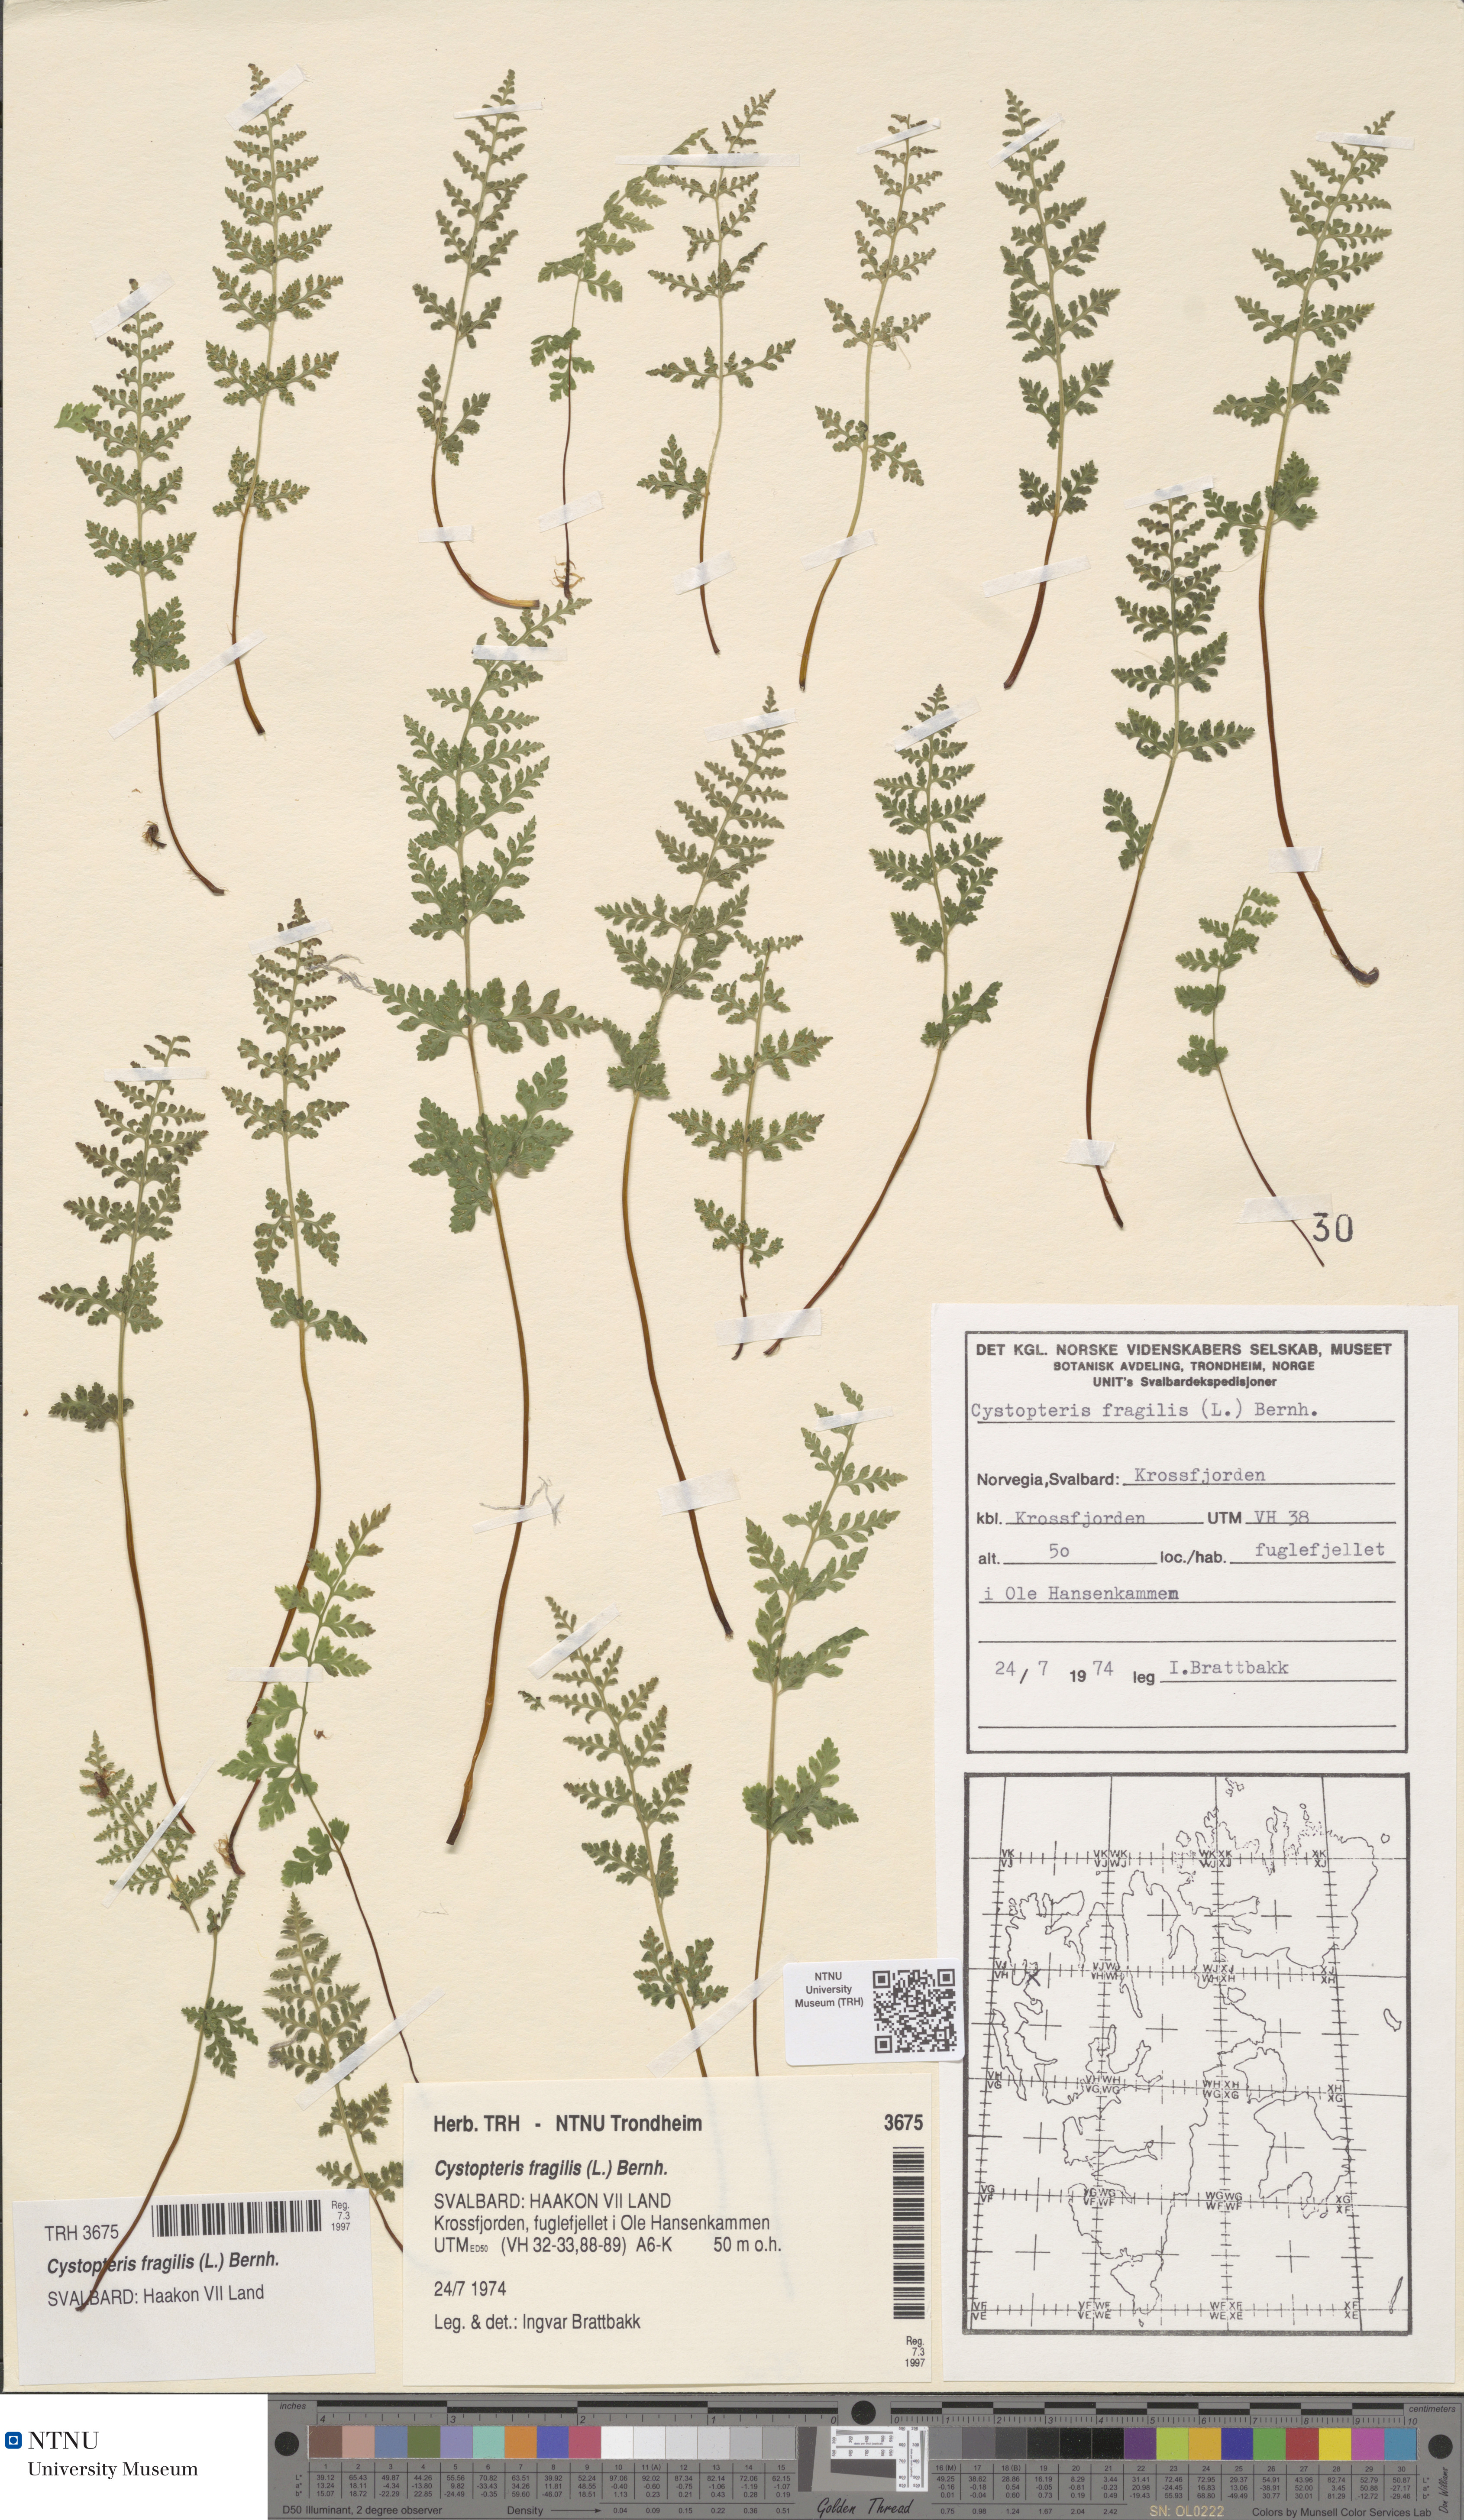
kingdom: Plantae
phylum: Tracheophyta
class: Polypodiopsida
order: Polypodiales
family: Cystopteridaceae
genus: Cystopteris
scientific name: Cystopteris fragilis
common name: Brittle bladder fern
